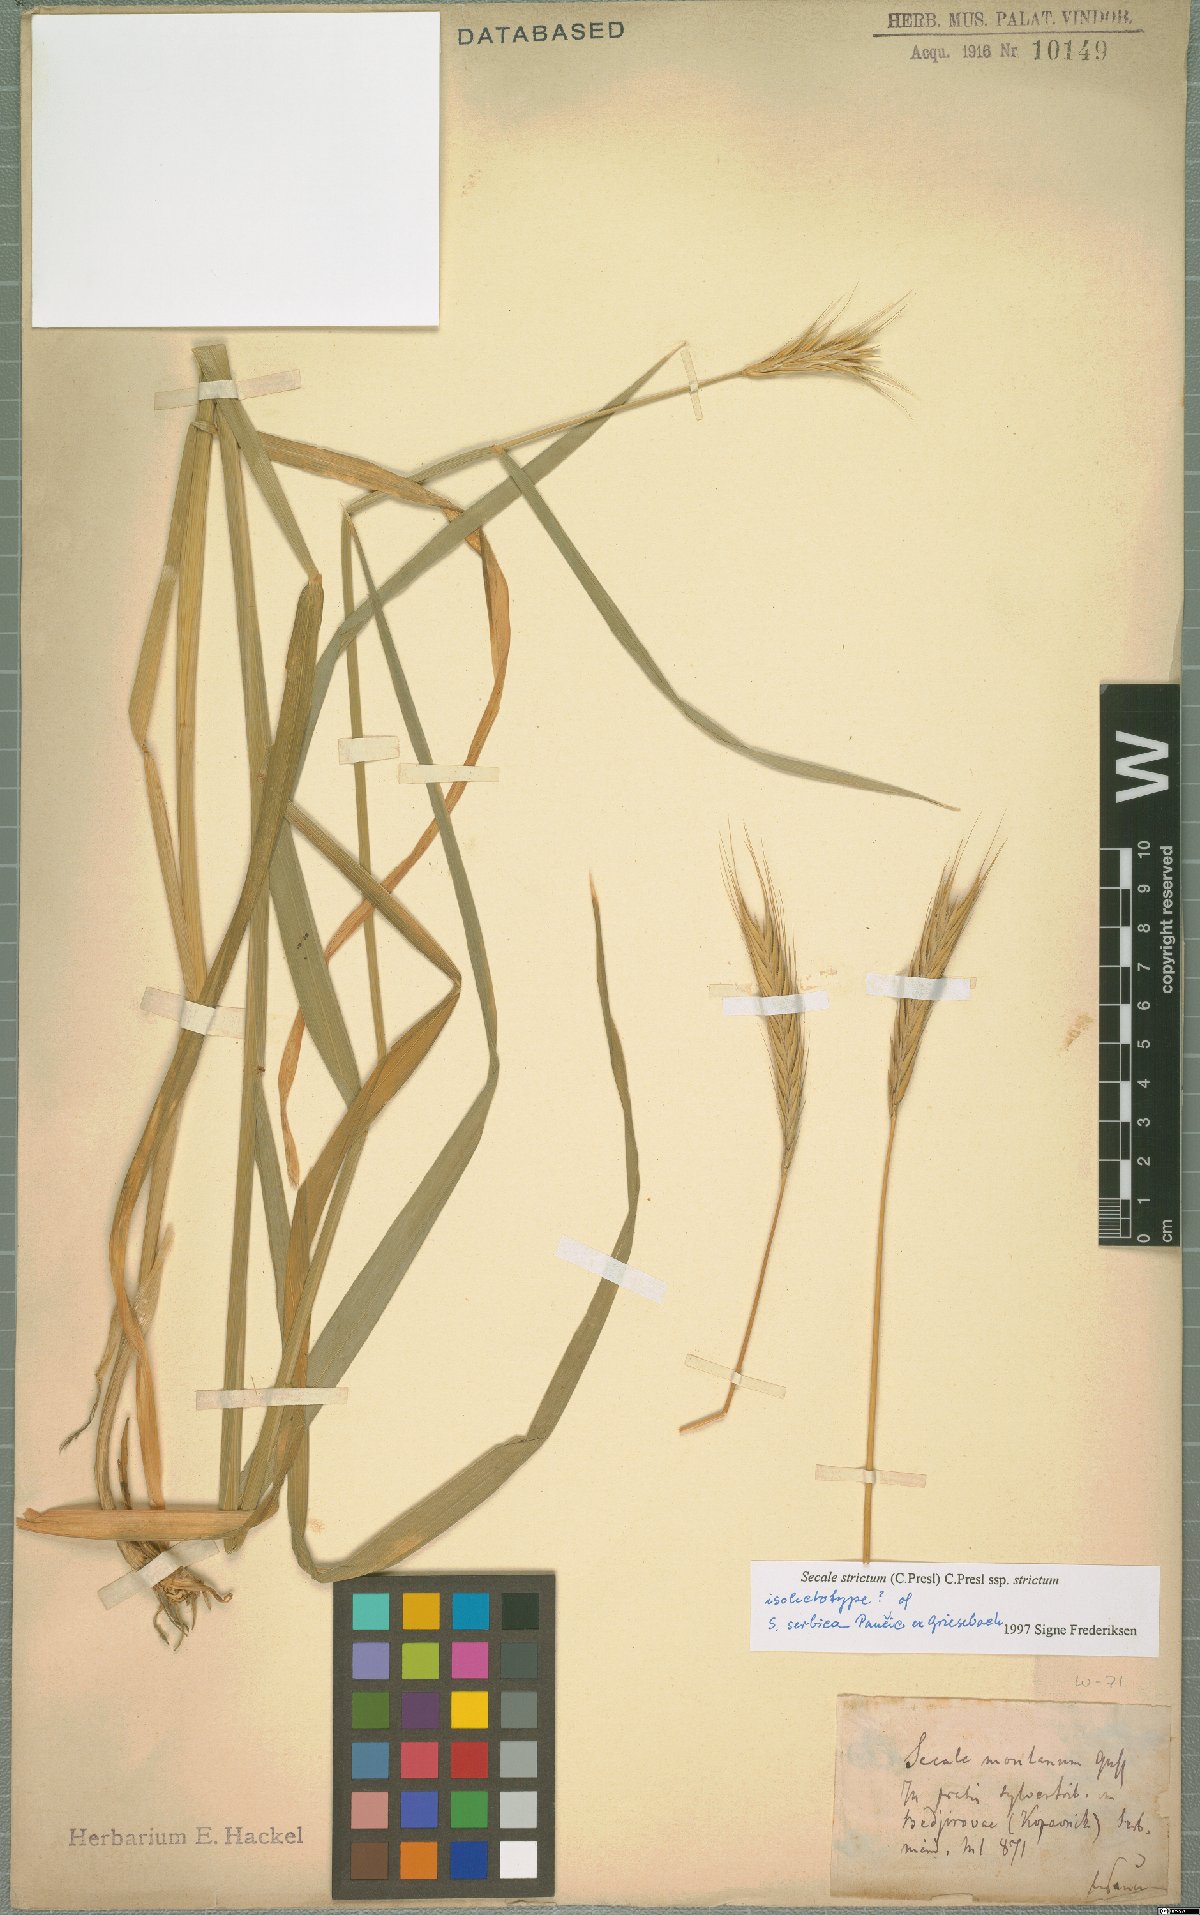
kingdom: Plantae
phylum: Tracheophyta
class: Liliopsida
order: Poales
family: Poaceae
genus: Secale
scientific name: Secale strictum
